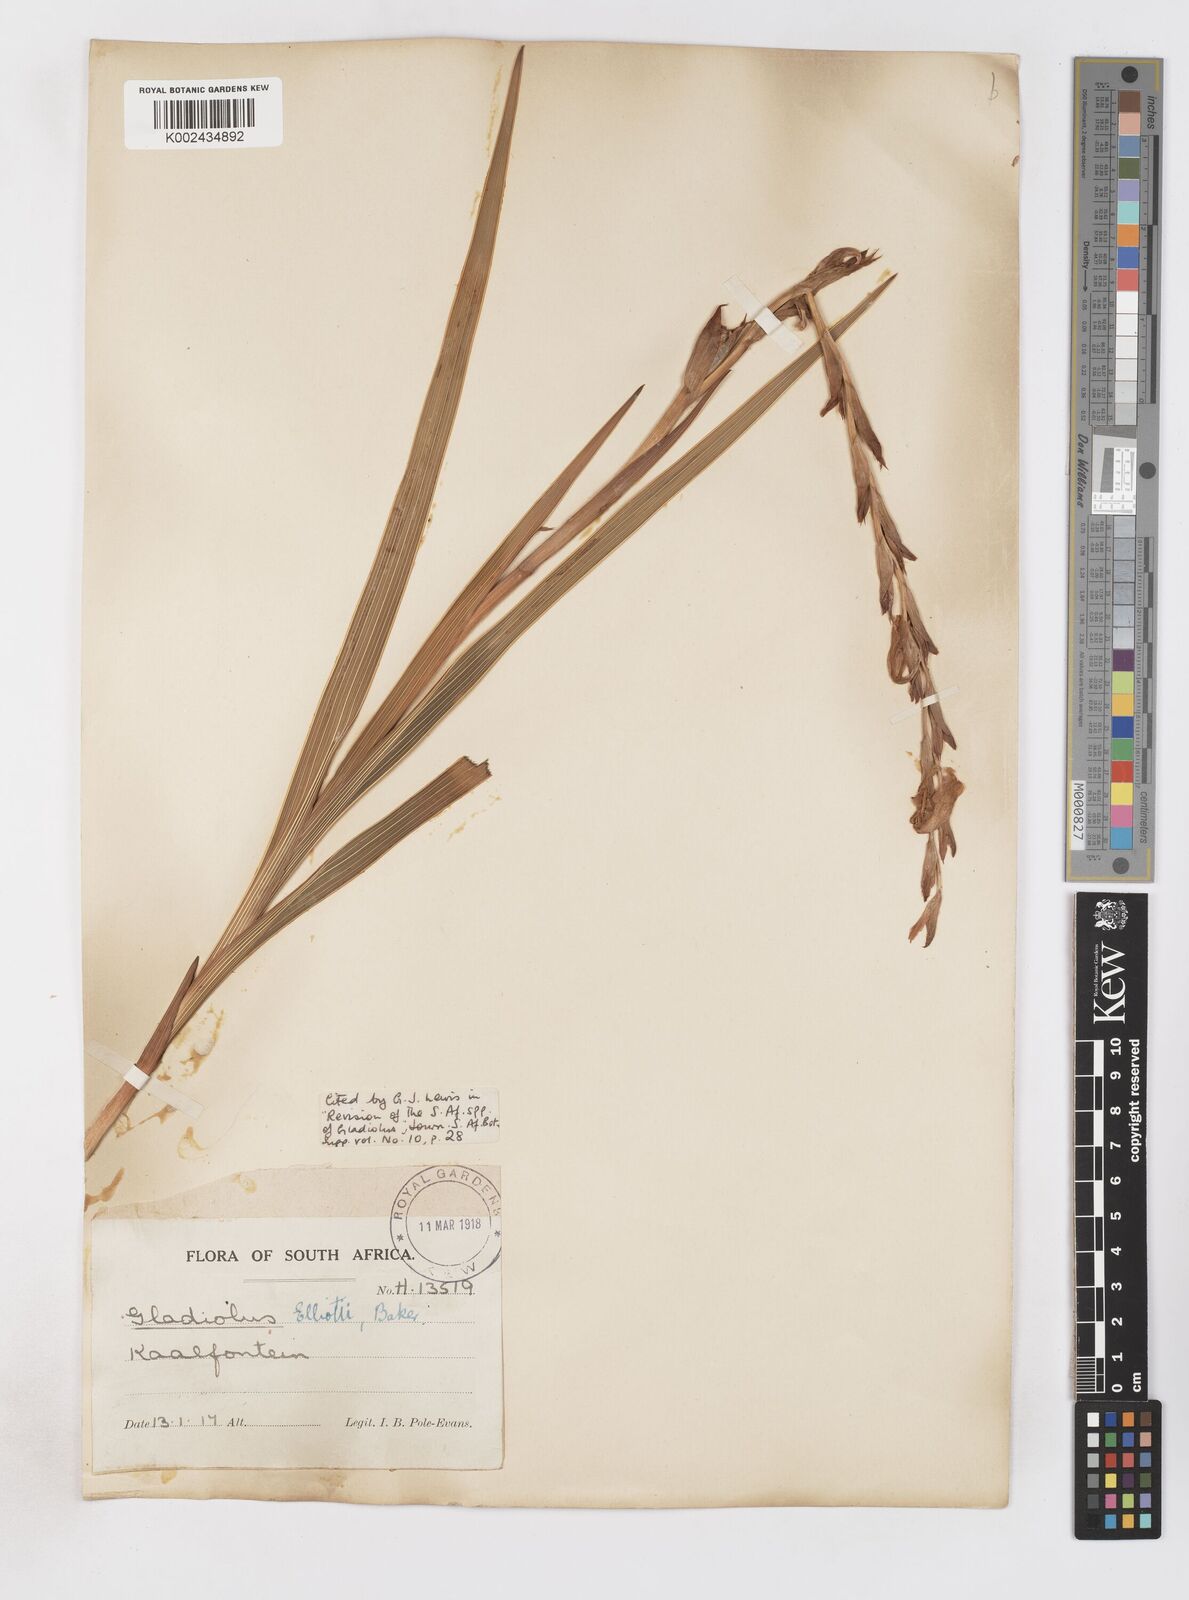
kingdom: Plantae
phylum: Tracheophyta
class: Liliopsida
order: Asparagales
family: Iridaceae
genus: Gladiolus
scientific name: Gladiolus elliotii
